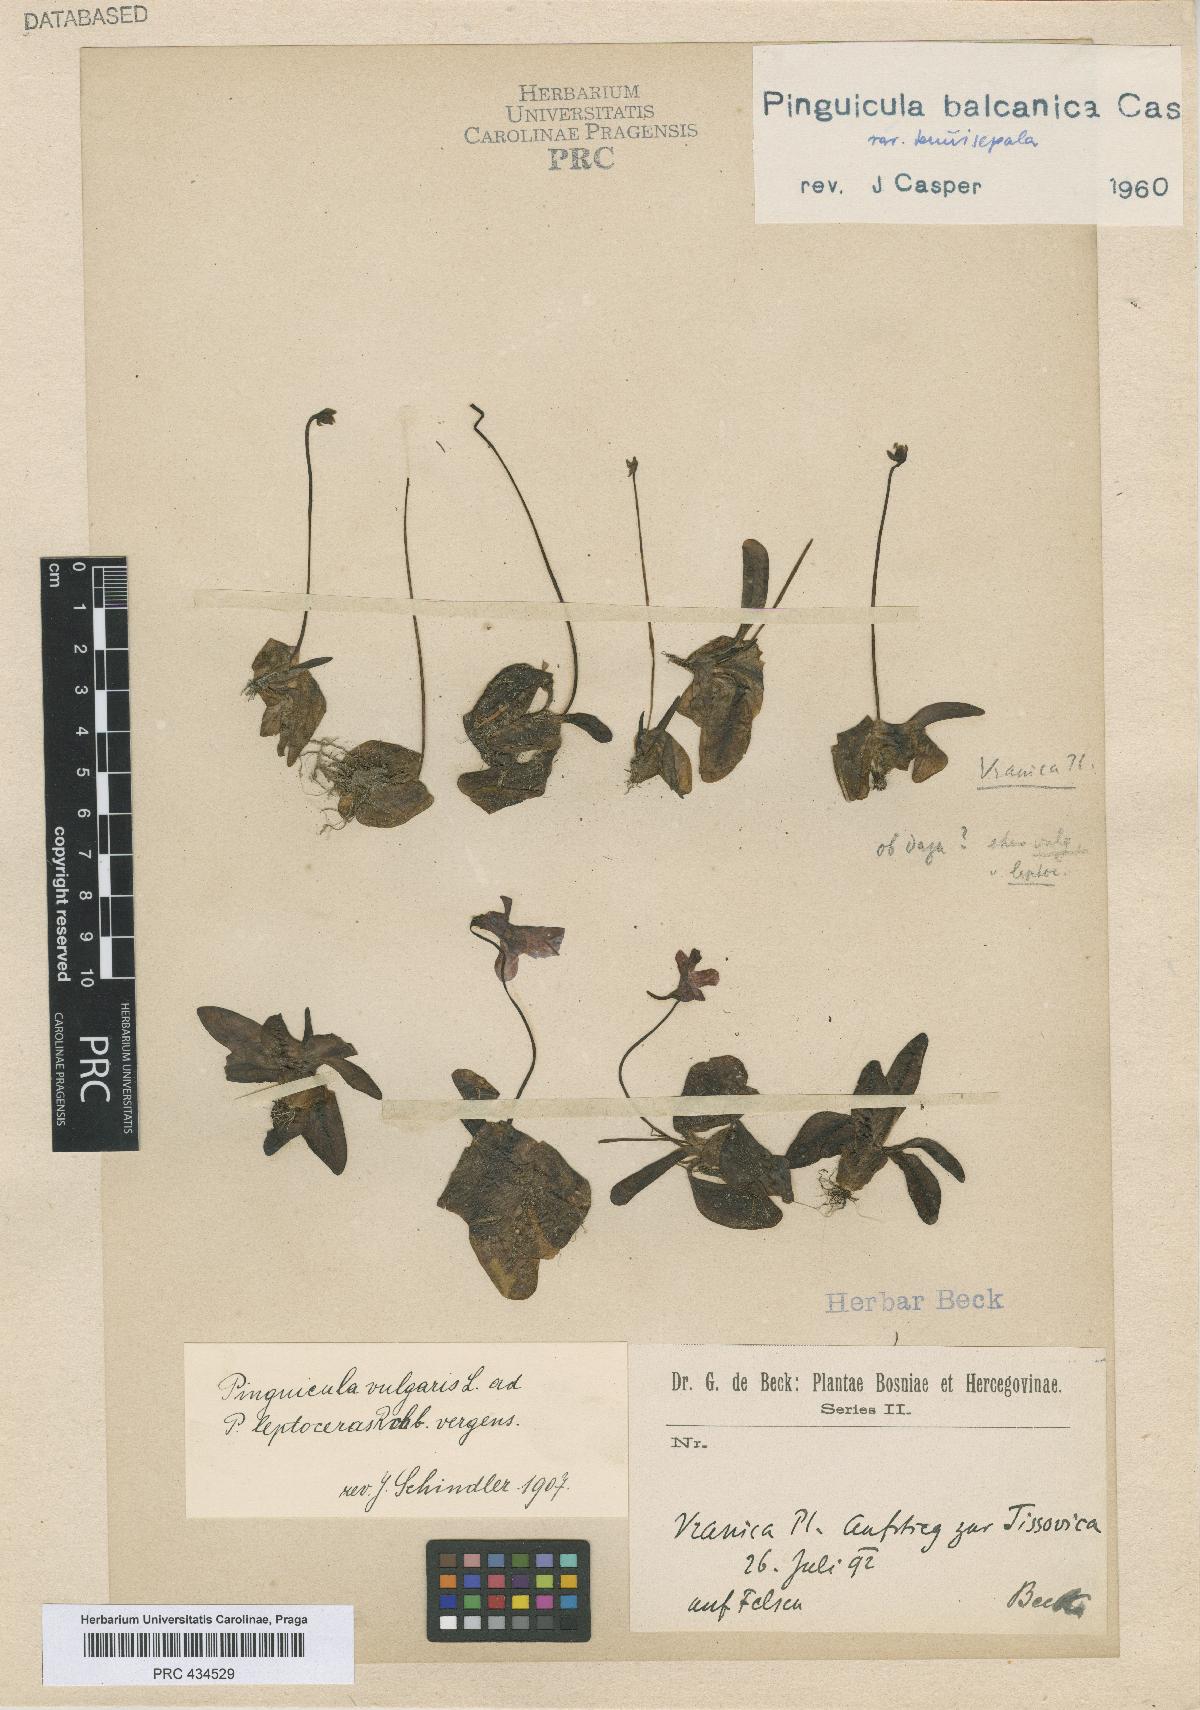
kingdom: Plantae
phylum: Tracheophyta
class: Magnoliopsida
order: Lamiales
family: Lentibulariaceae
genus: Pinguicula
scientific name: Pinguicula balcanica
